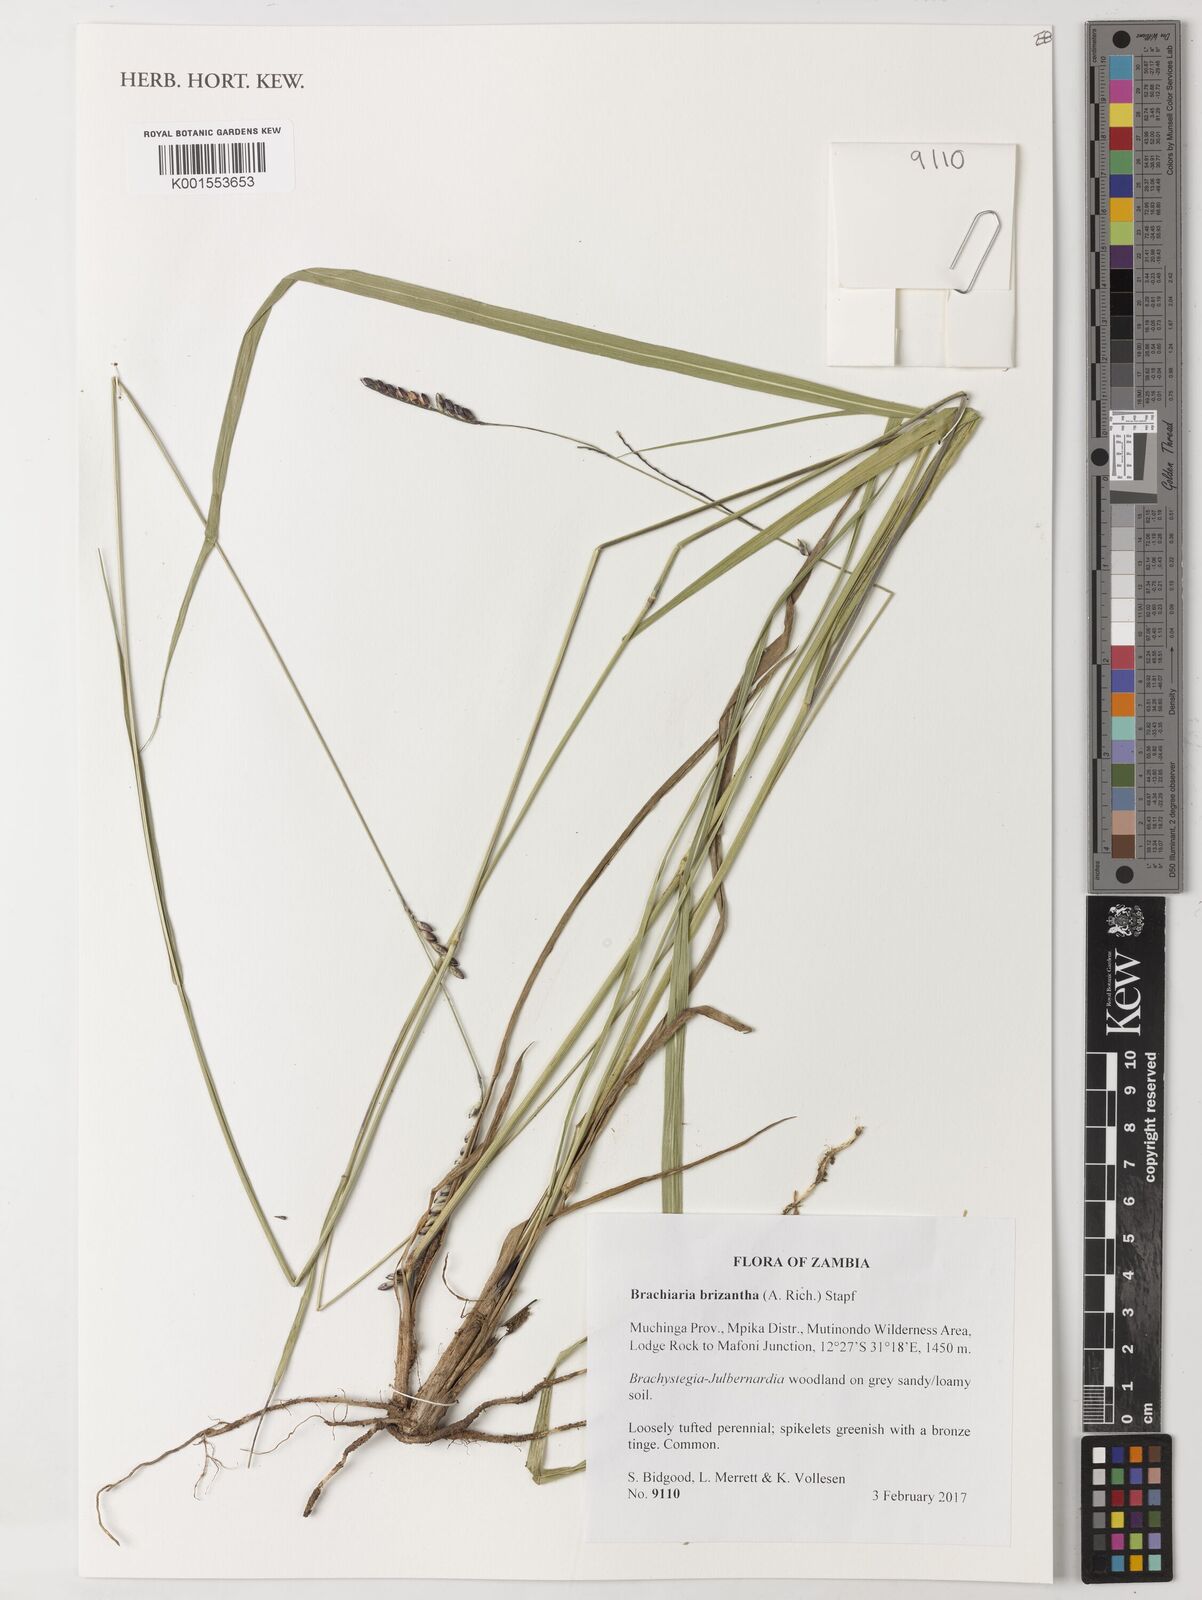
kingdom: Plantae
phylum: Tracheophyta
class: Liliopsida
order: Poales
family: Poaceae
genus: Urochloa
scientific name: Urochloa brizantha
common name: Palisade signalgrass
